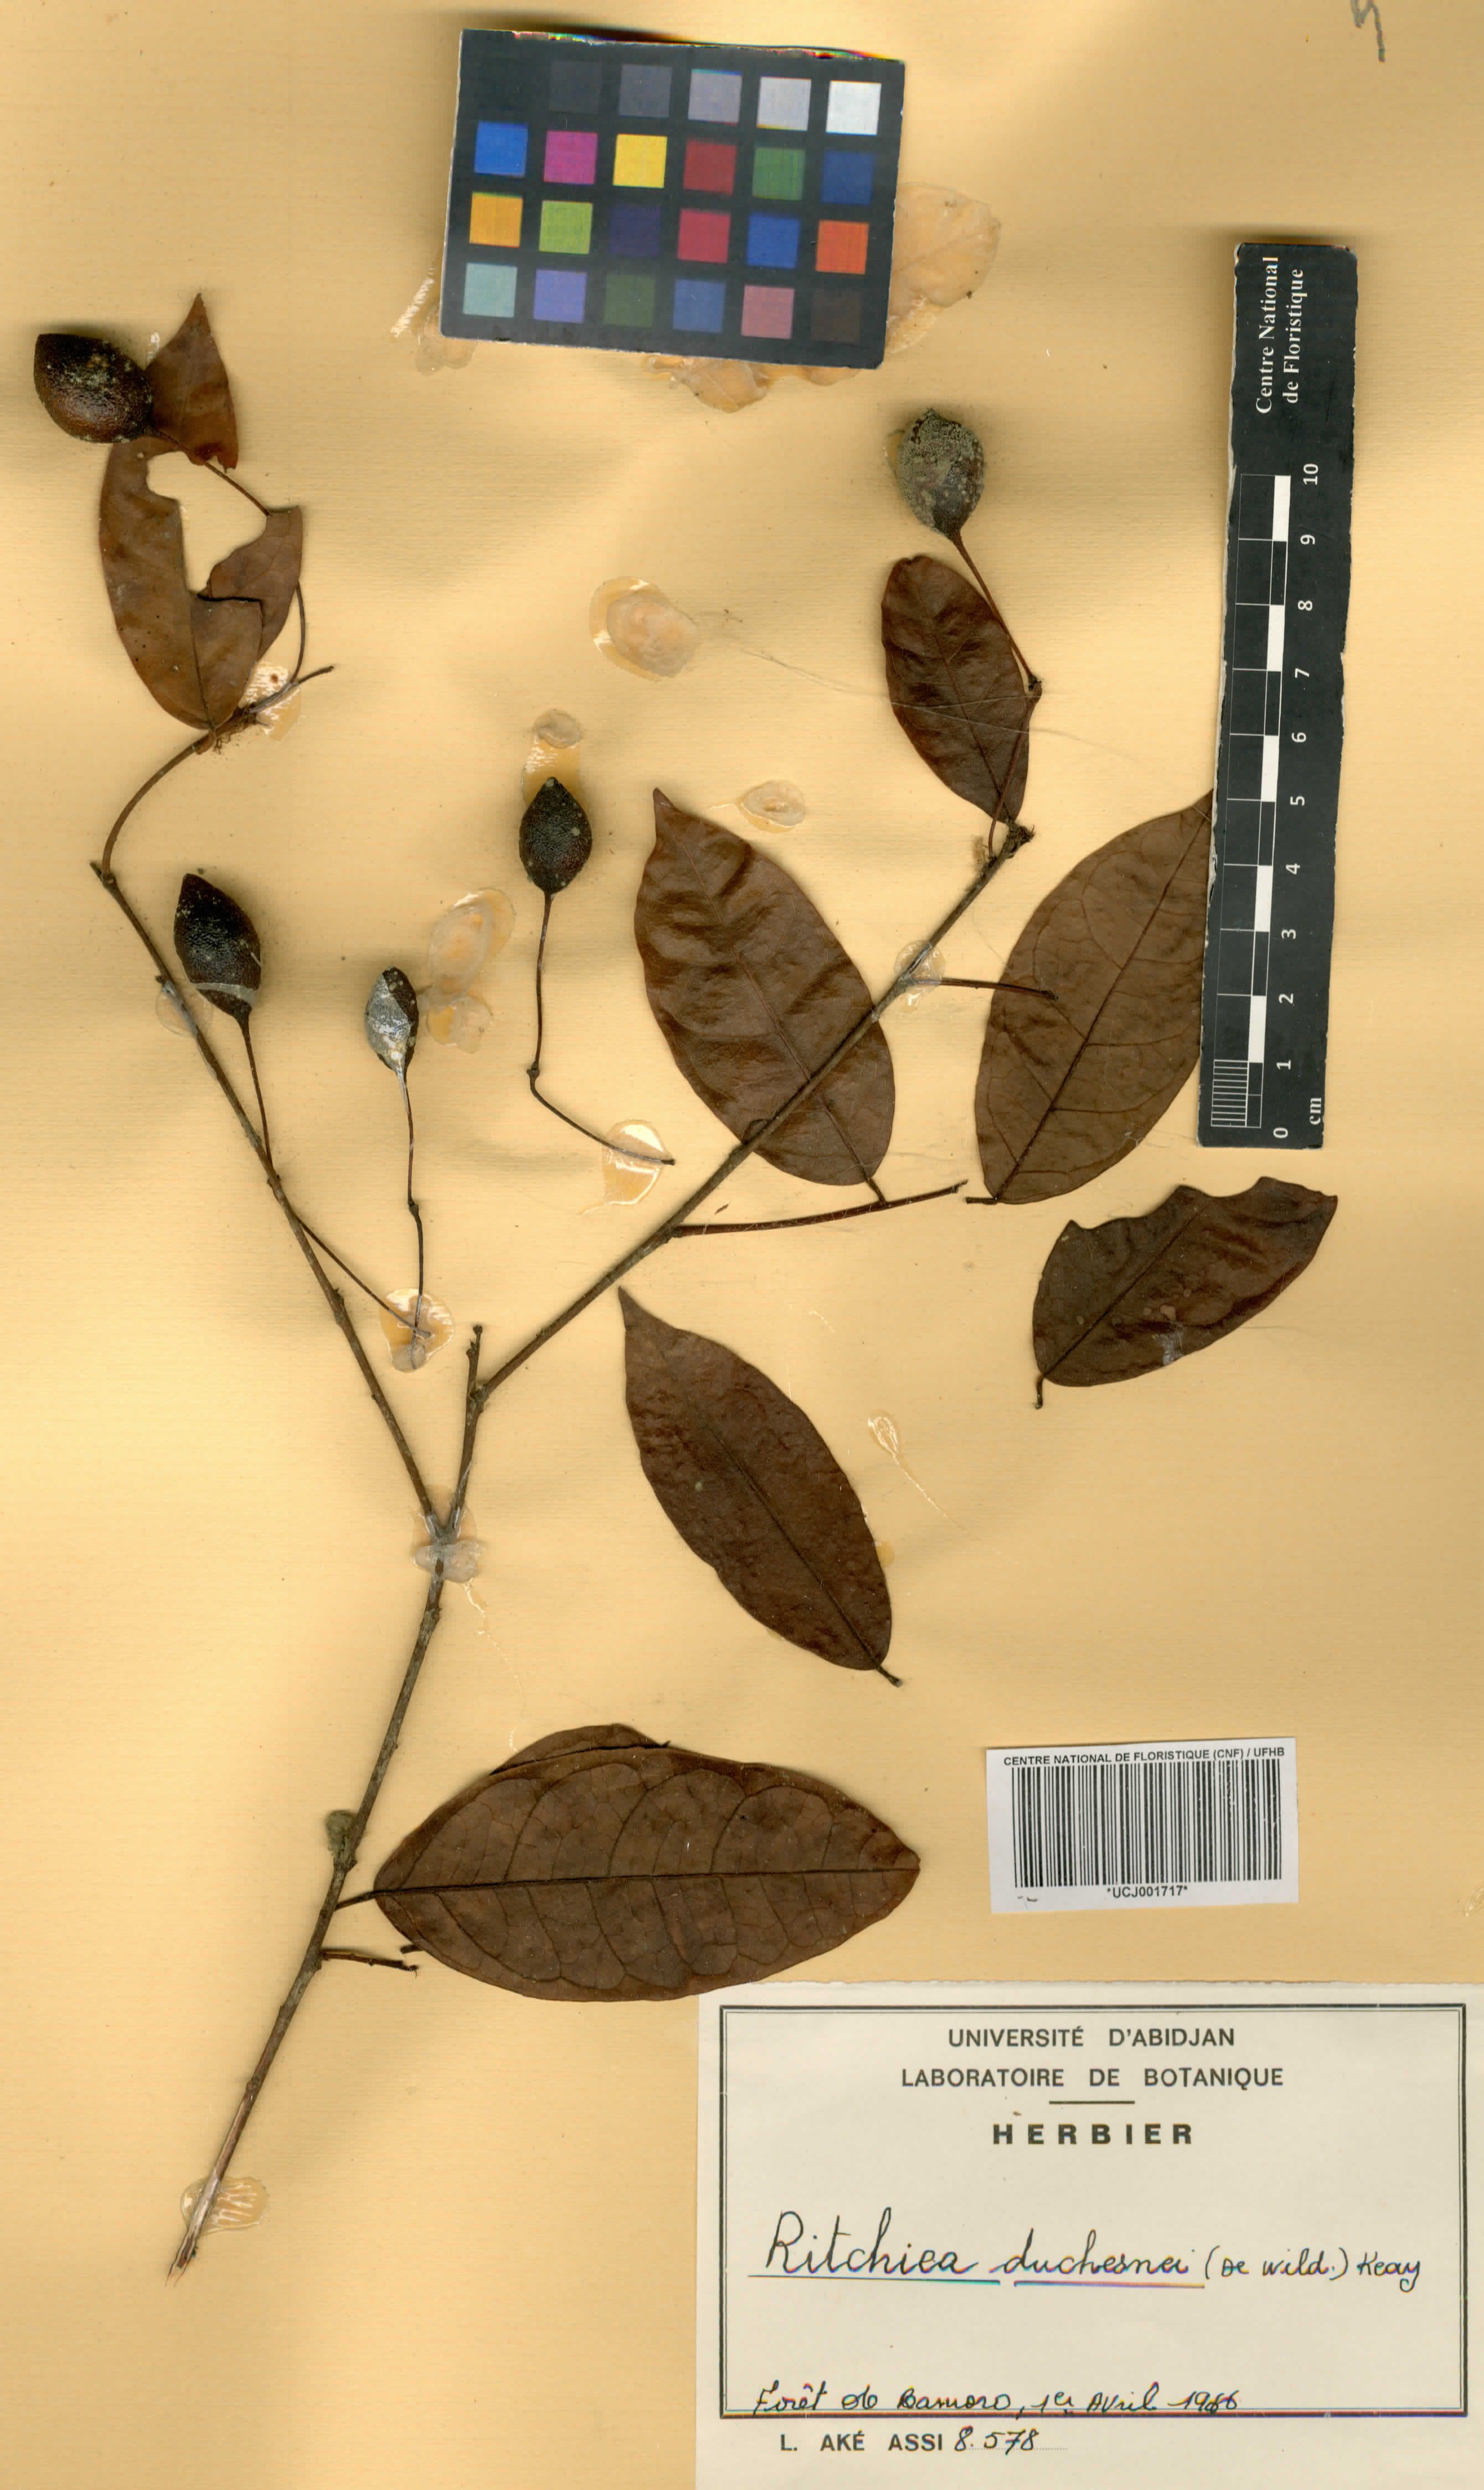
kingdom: Plantae
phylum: Tracheophyta
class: Magnoliopsida
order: Brassicales
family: Capparaceae
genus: Maerua
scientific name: Maerua duchesnei
